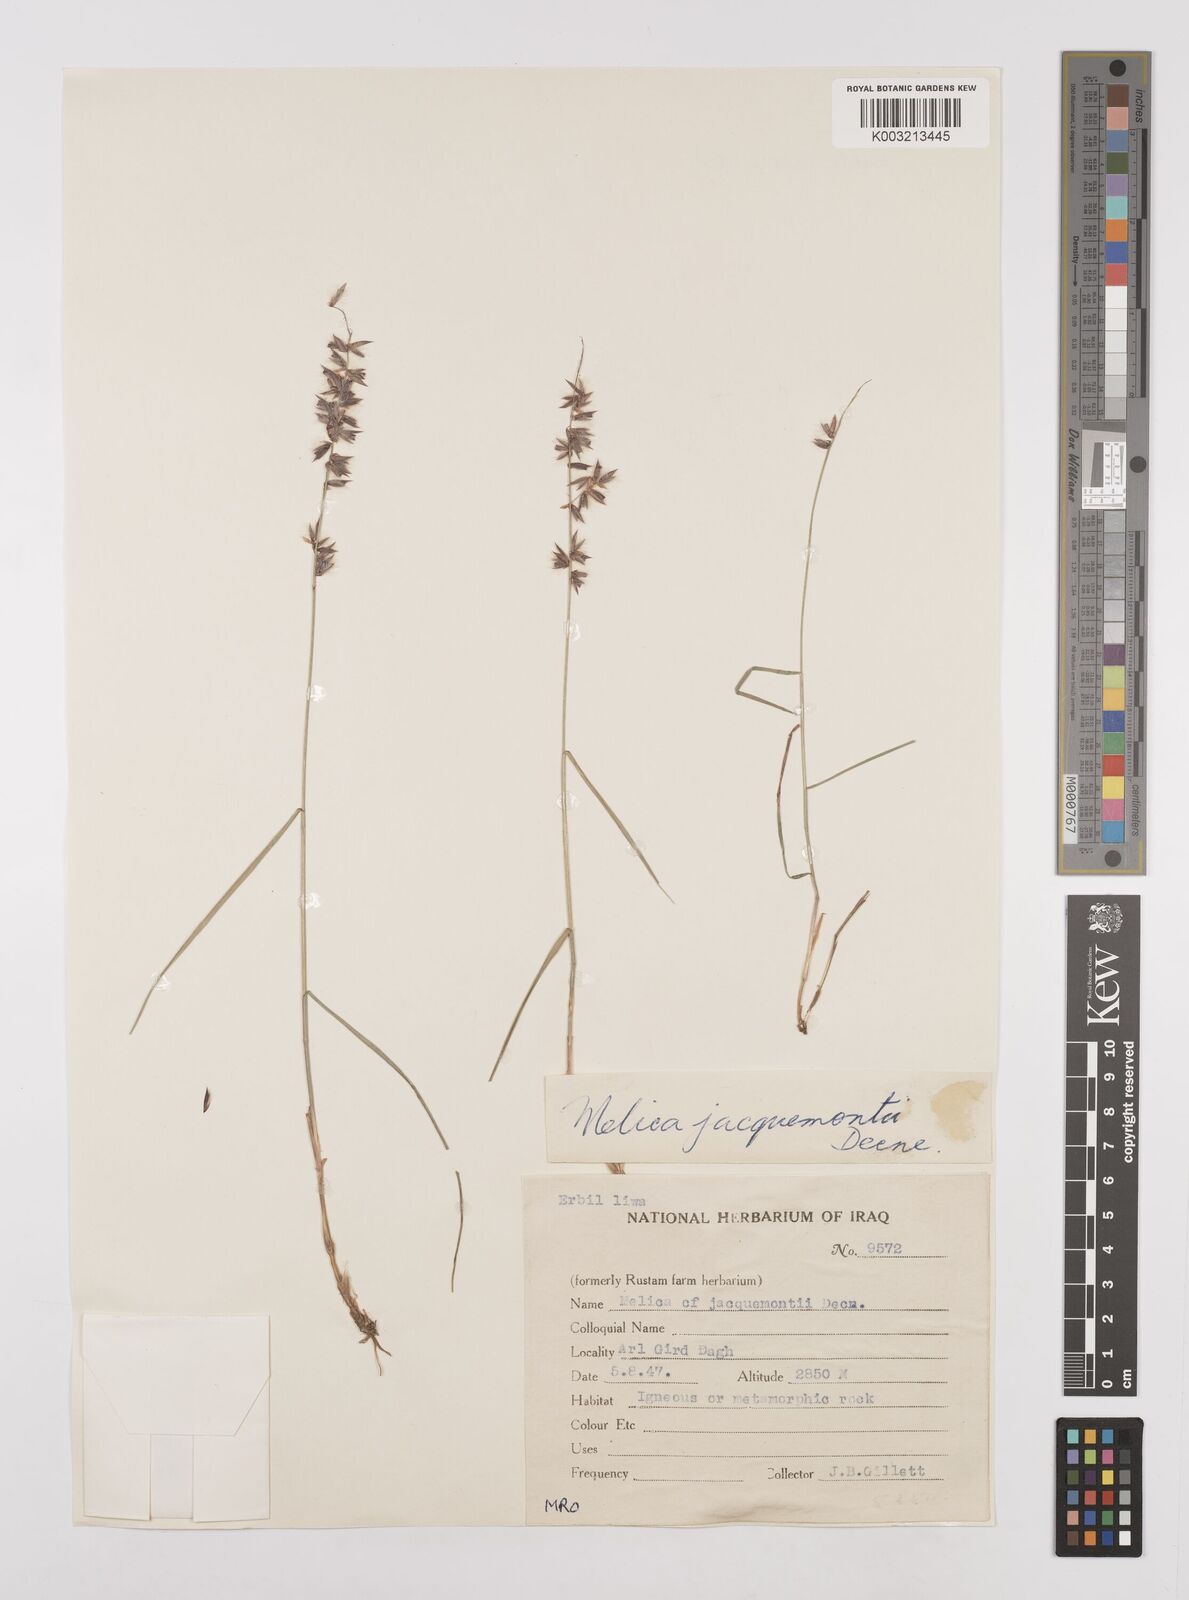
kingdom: Plantae
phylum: Tracheophyta
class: Liliopsida
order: Poales
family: Poaceae
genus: Melica
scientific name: Melica persica
